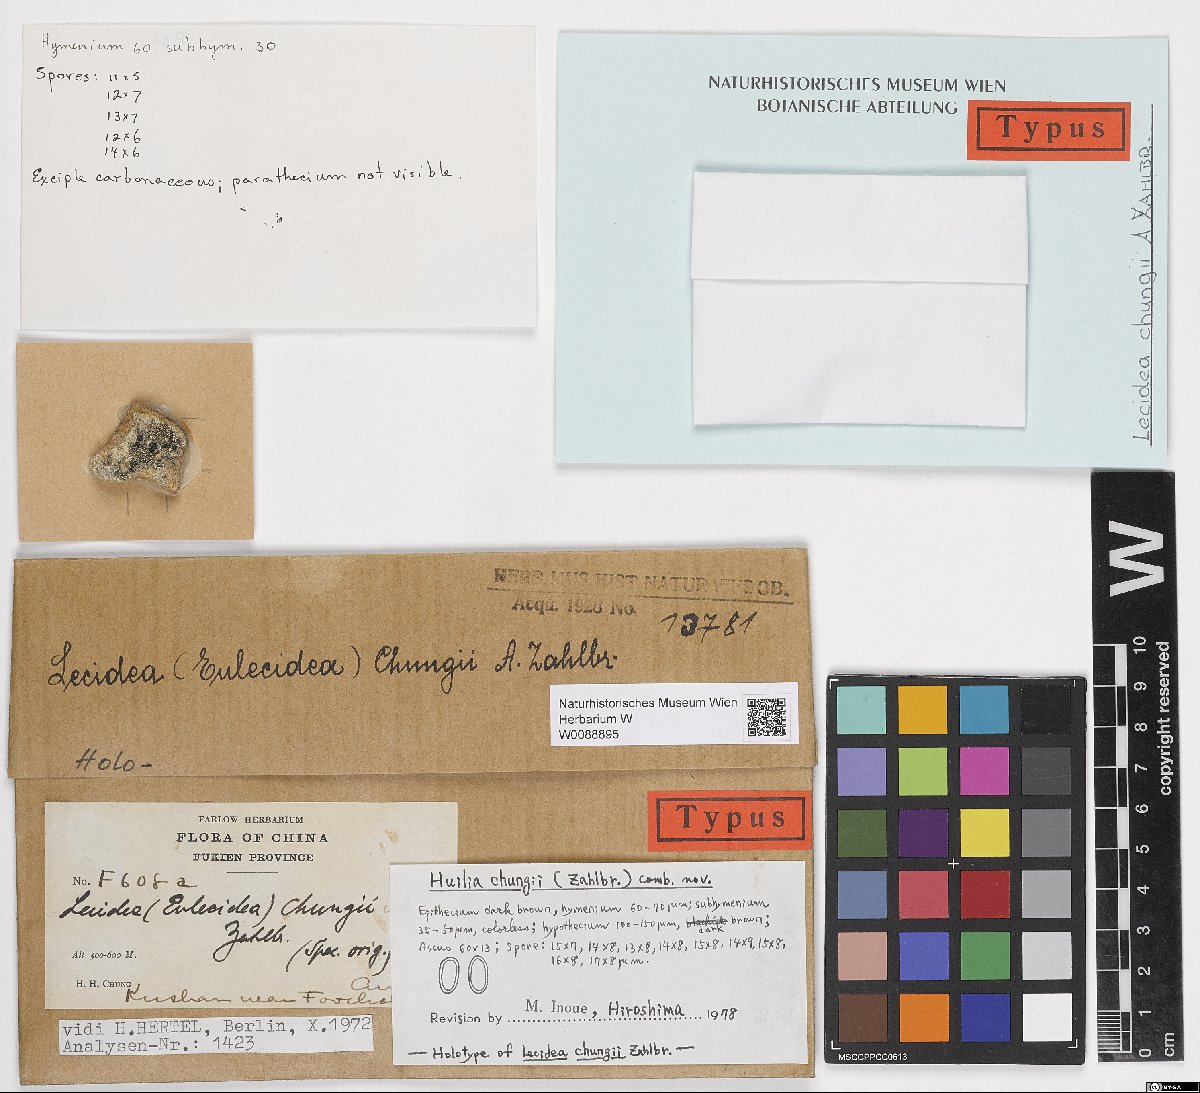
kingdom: Fungi
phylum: Ascomycota
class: Lecanoromycetes
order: Lecideales
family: Lecideaceae
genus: Lecidea
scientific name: Lecidea
